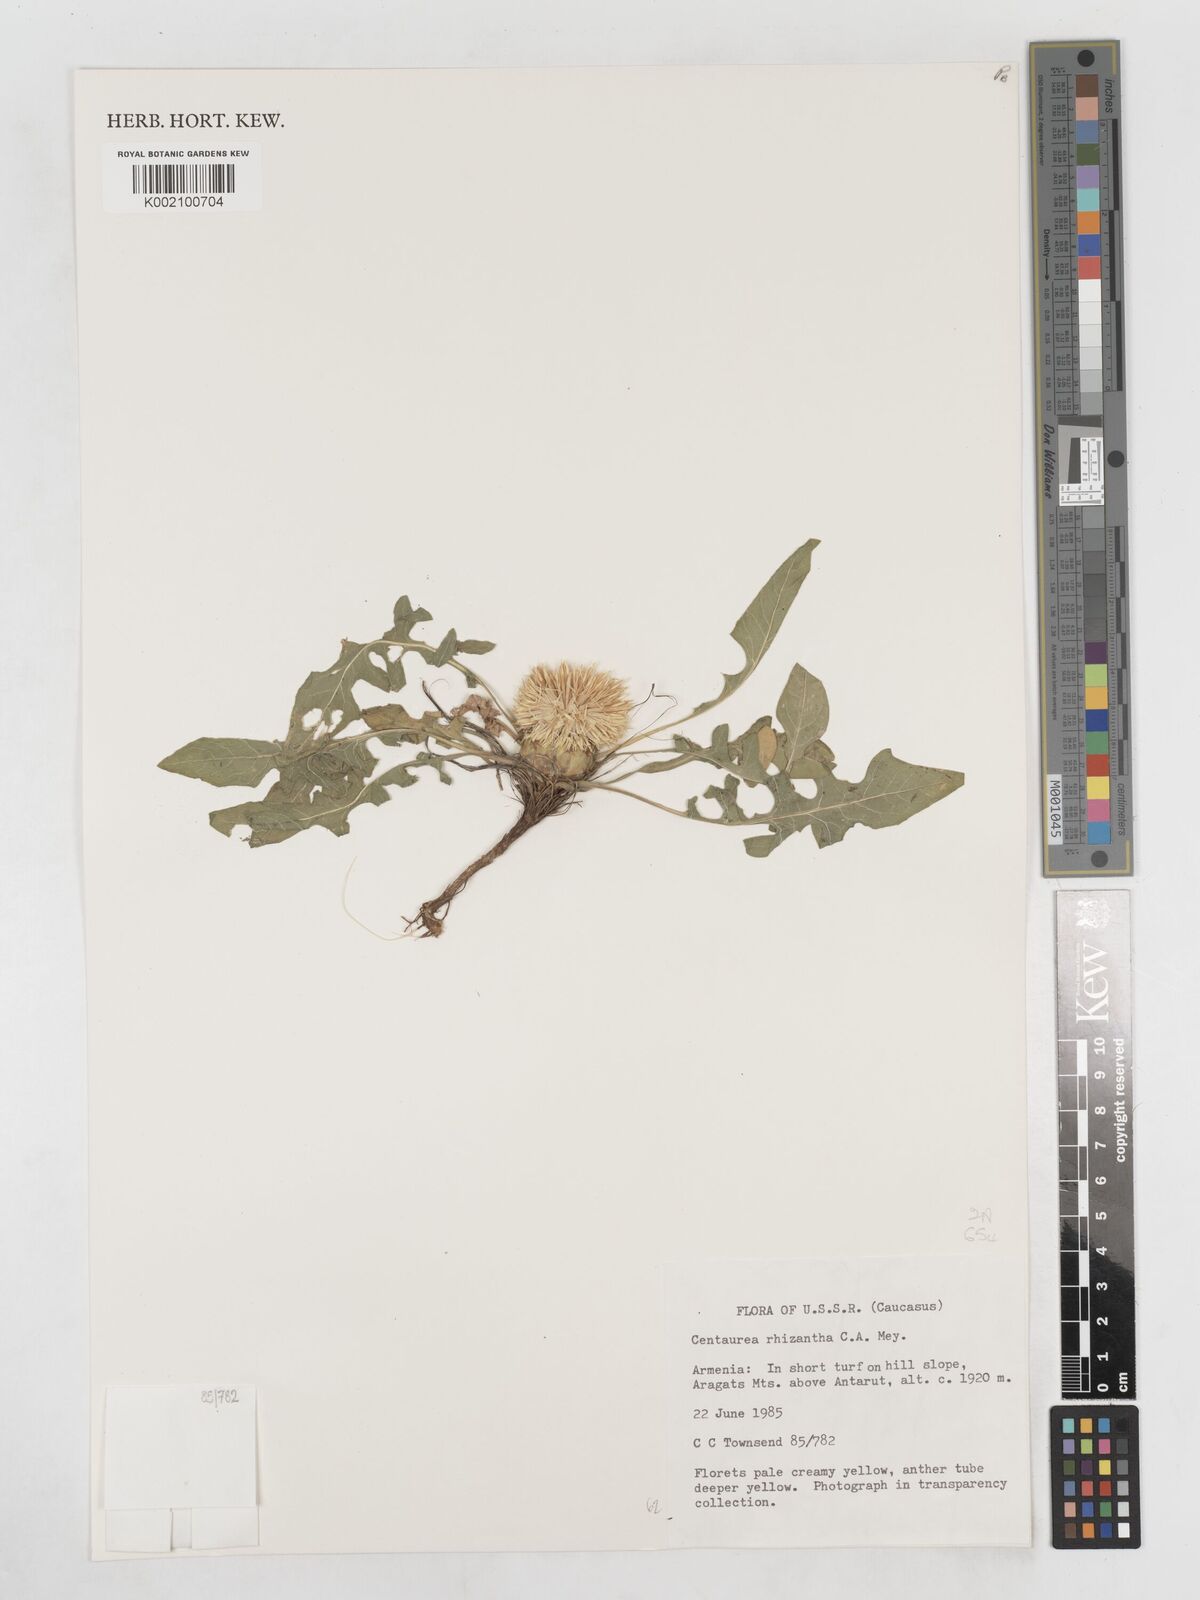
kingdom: Plantae
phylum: Tracheophyta
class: Magnoliopsida
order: Asterales
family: Asteraceae
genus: Centaurea
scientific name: Centaurea rhizantha
